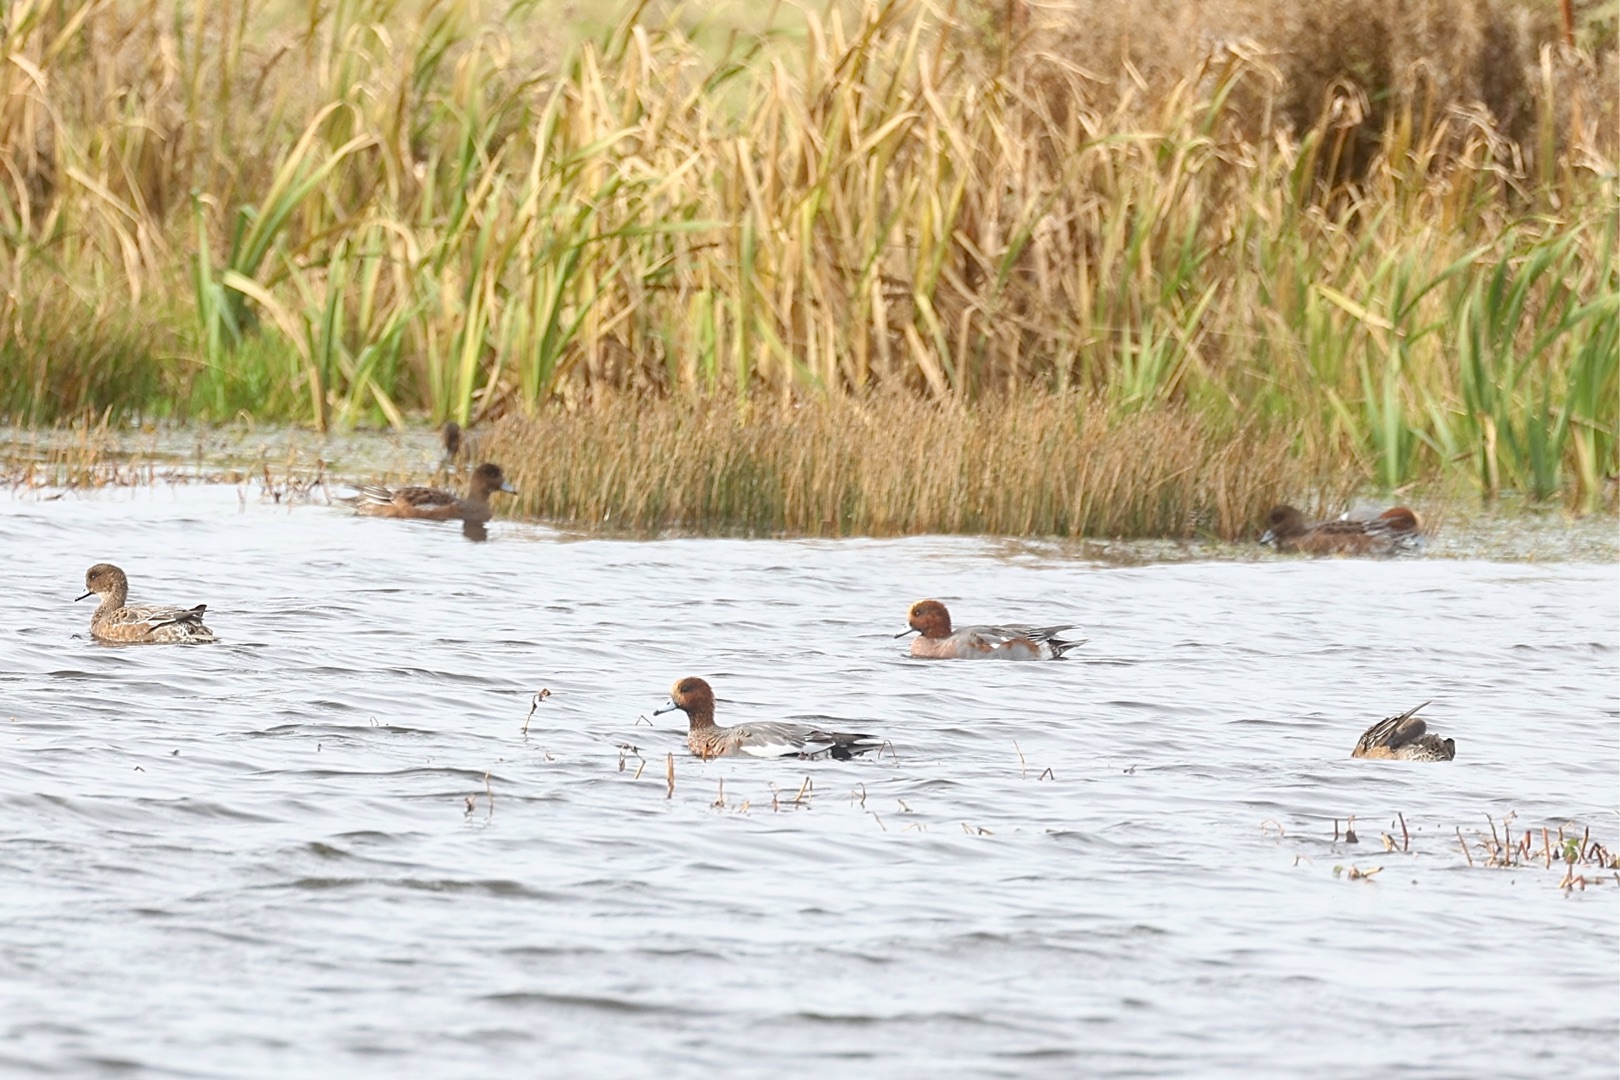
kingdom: Animalia
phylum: Chordata
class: Aves
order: Anseriformes
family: Anatidae
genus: Mareca
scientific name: Mareca penelope
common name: Pibeand
